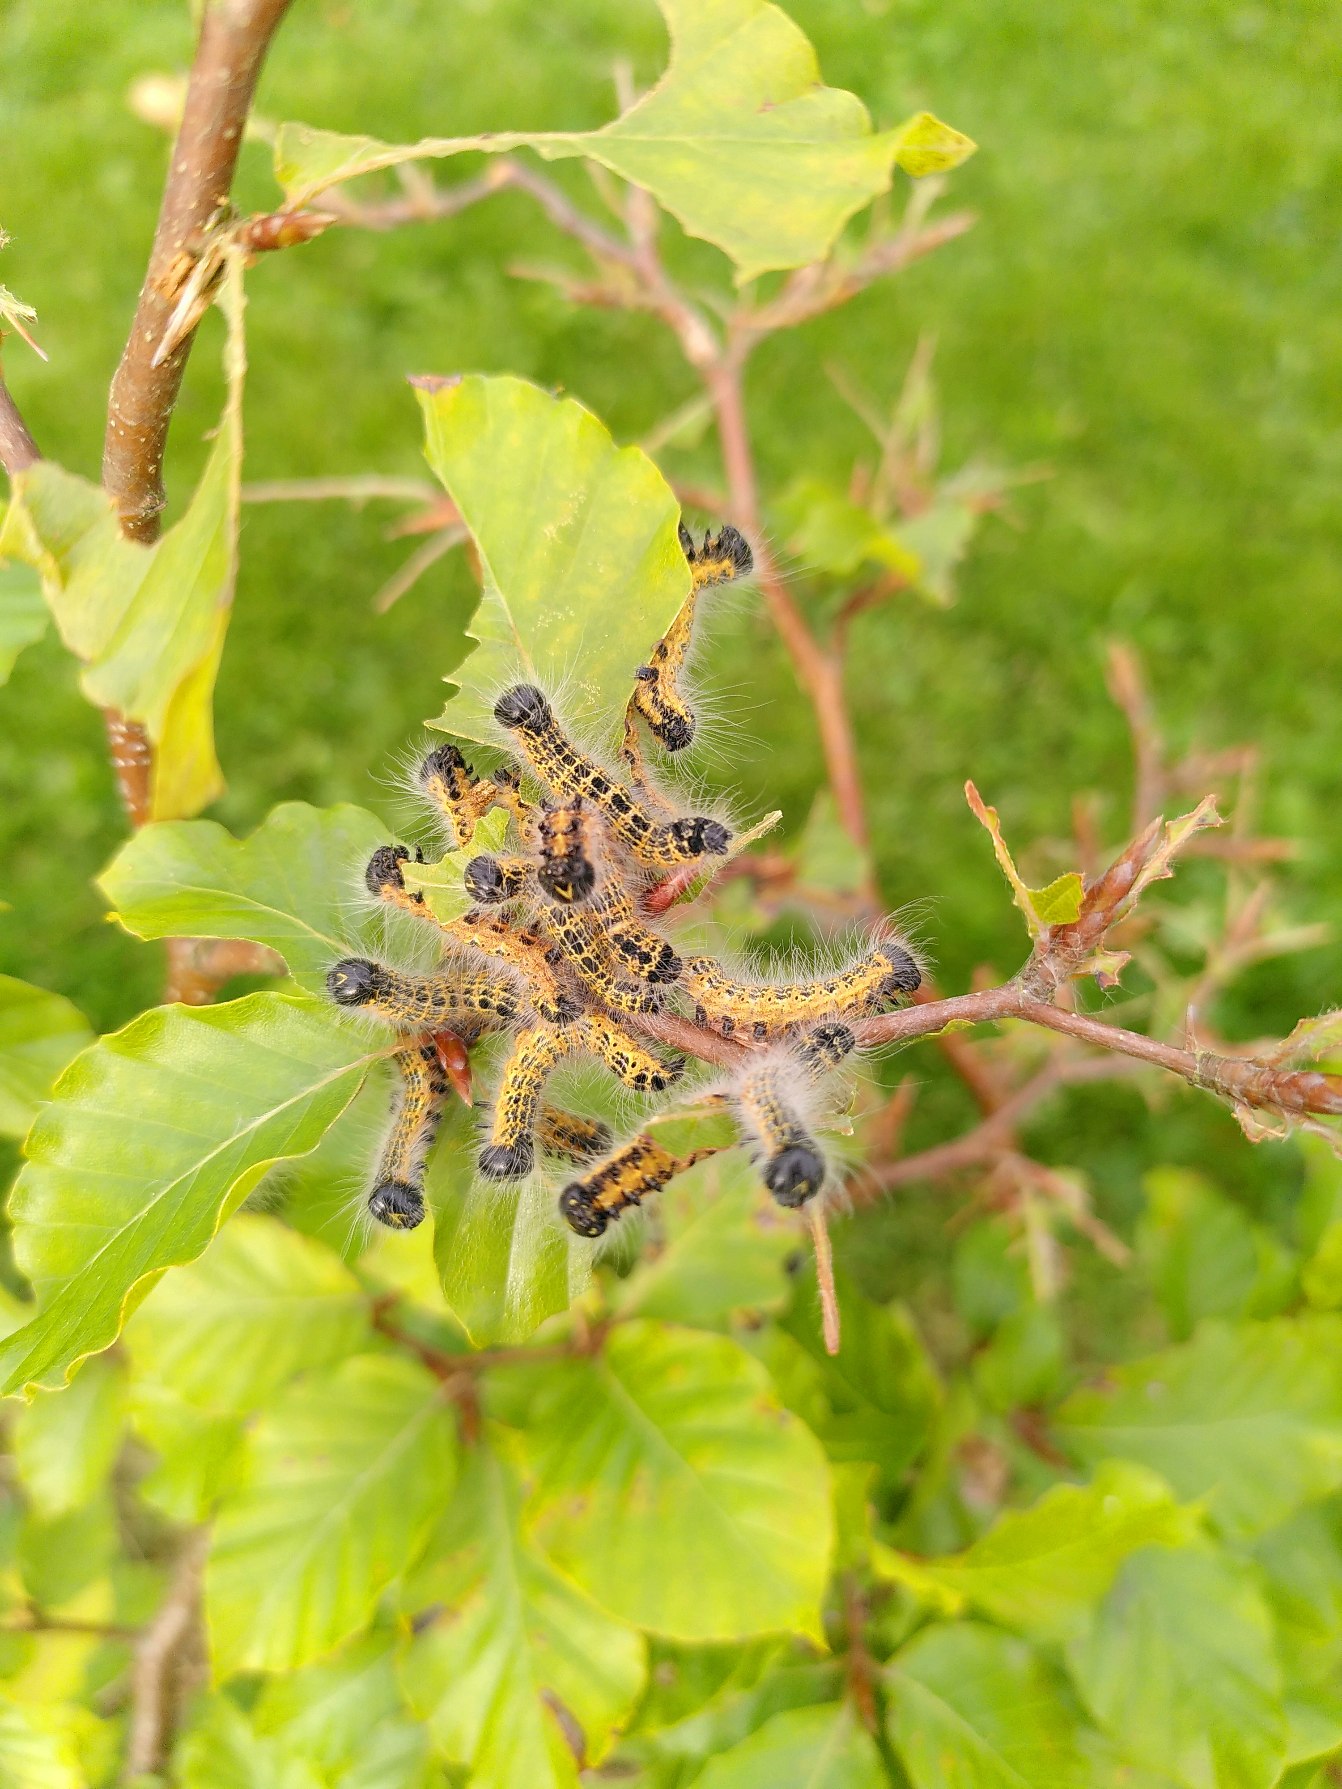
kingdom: Animalia
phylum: Arthropoda
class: Insecta
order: Lepidoptera
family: Notodontidae
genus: Phalera
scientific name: Phalera bucephala
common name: Måneplet
